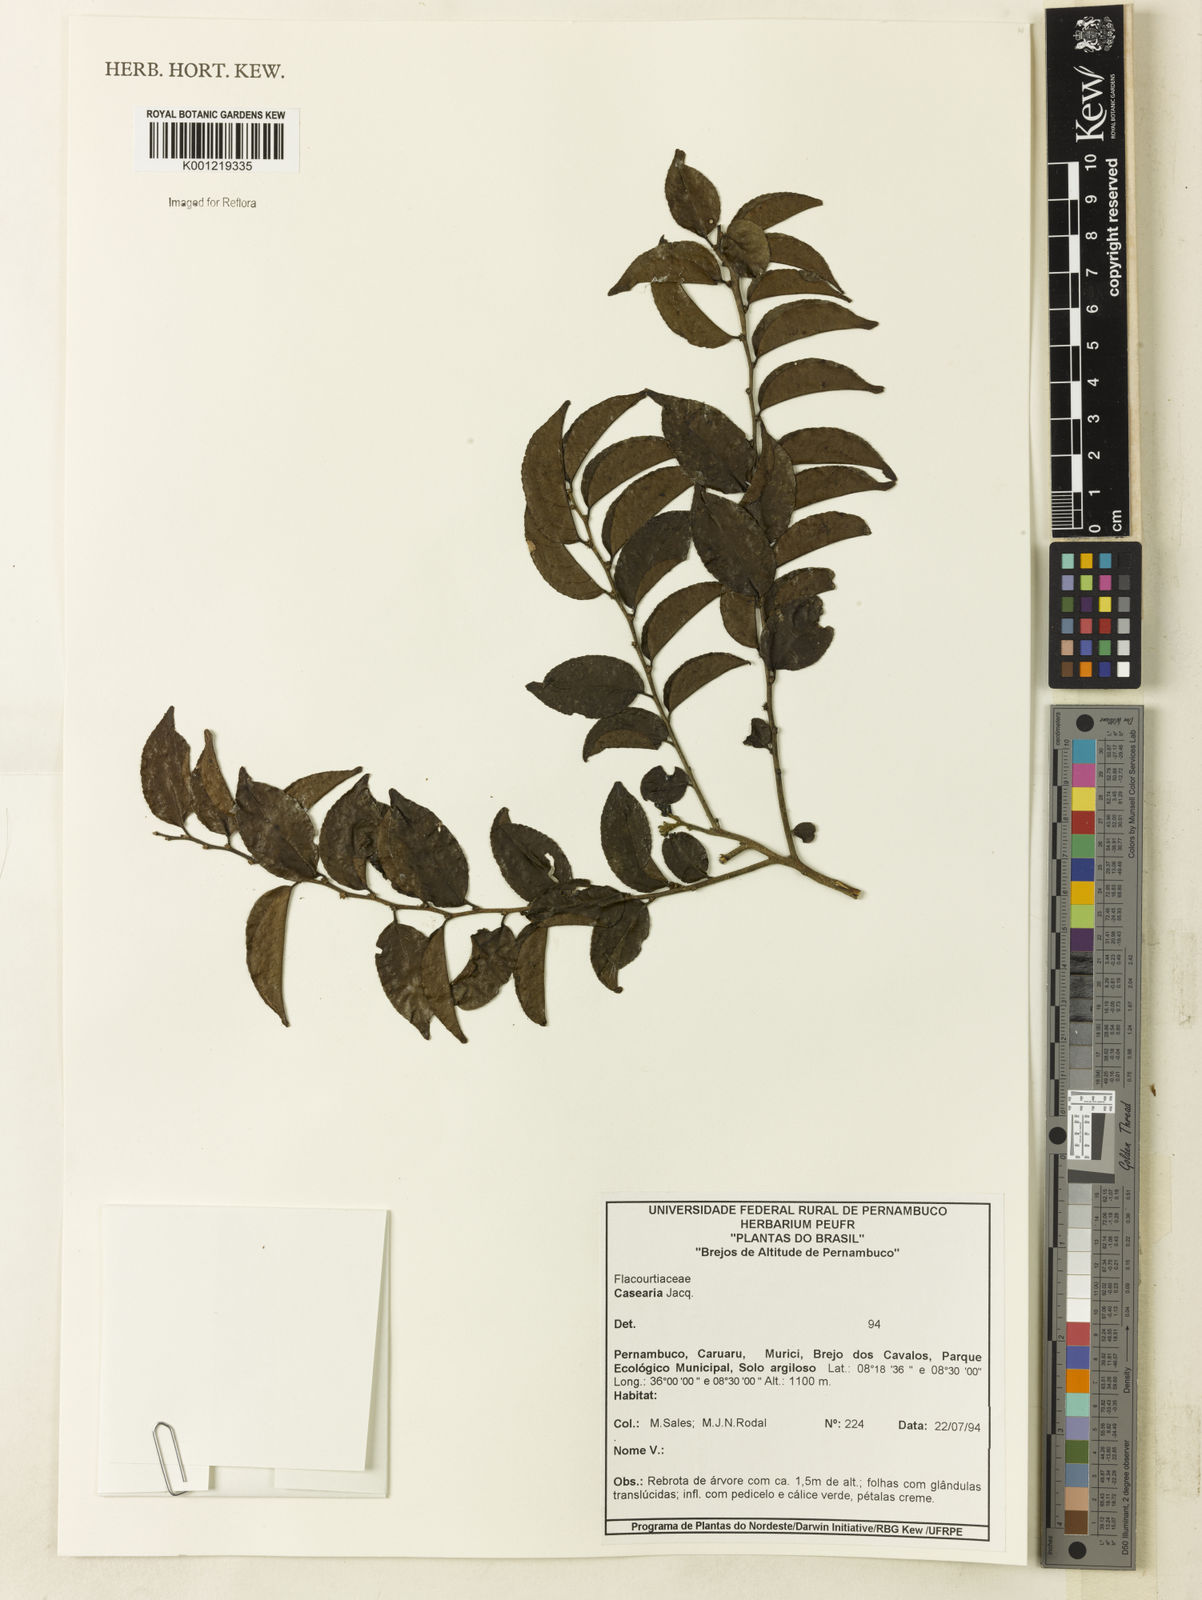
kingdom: Plantae
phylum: Tracheophyta
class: Magnoliopsida
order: Malpighiales
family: Salicaceae
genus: Casearia
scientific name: Casearia
